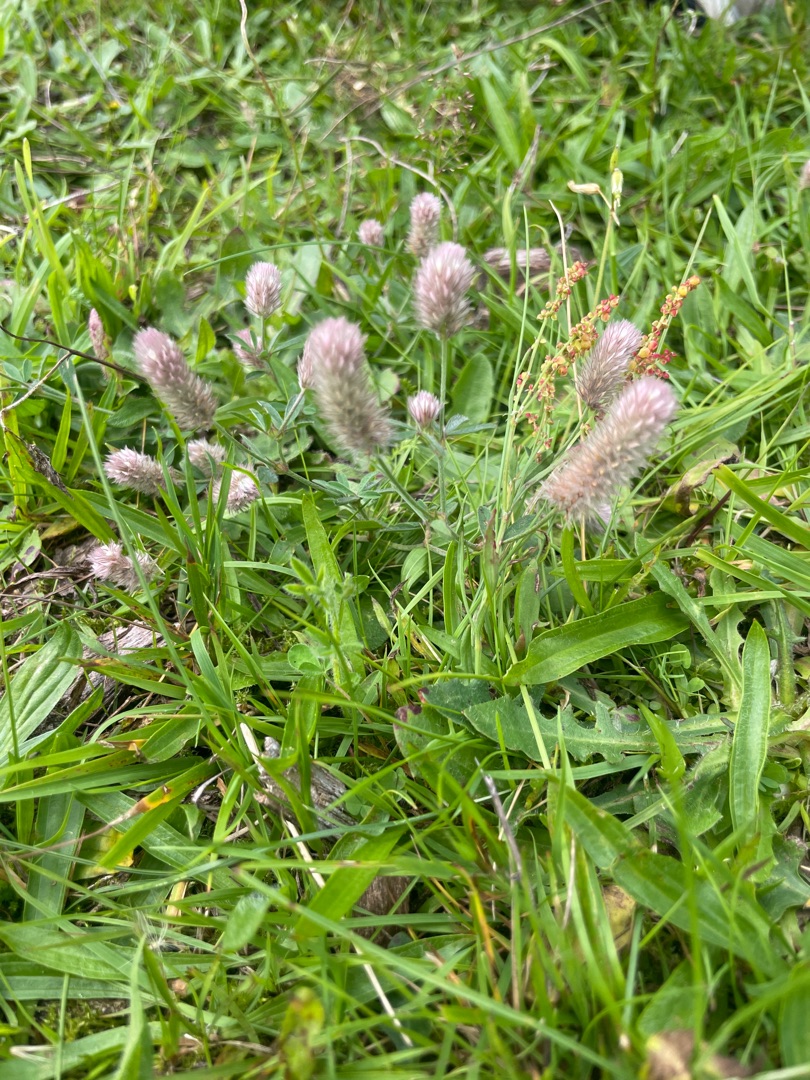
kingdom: Plantae
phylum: Tracheophyta
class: Magnoliopsida
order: Fabales
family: Fabaceae
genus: Trifolium
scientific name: Trifolium arvense
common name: Hare-kløver
